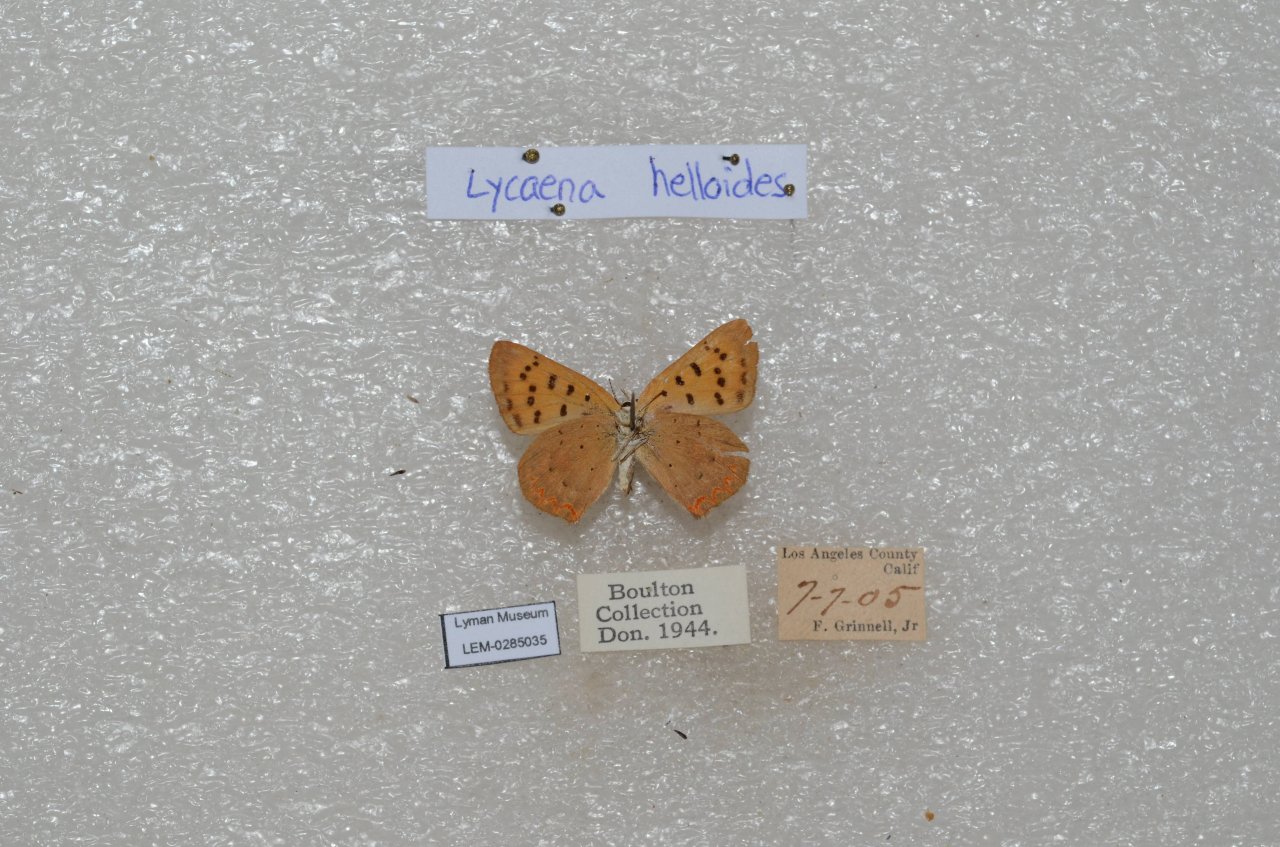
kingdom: Animalia
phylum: Arthropoda
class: Insecta
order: Lepidoptera
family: Sesiidae
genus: Sesia
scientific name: Sesia Lycaena helloides
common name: Purplish Copper
